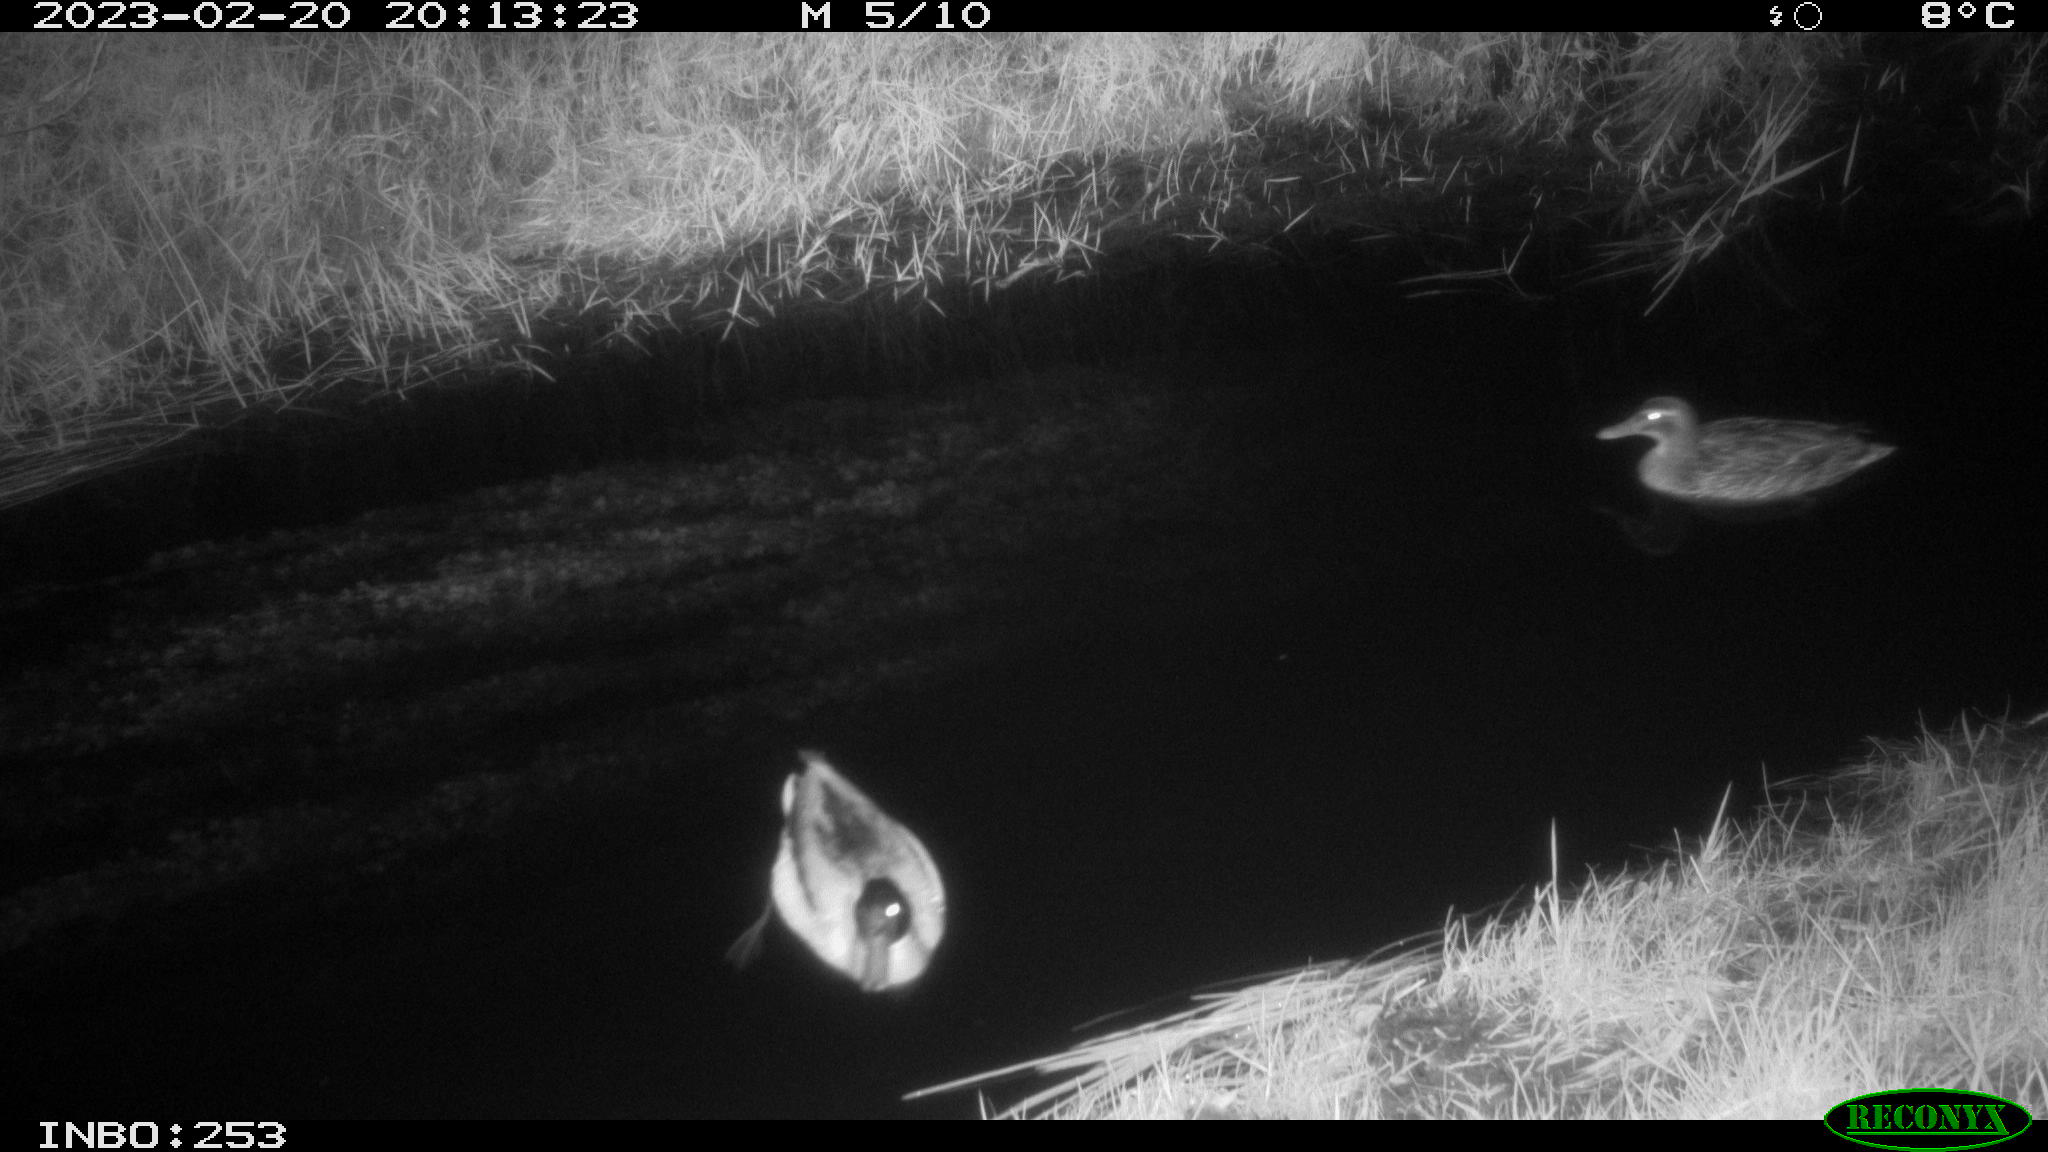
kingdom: Animalia
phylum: Chordata
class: Aves
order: Anseriformes
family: Anatidae
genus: Anas
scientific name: Anas
